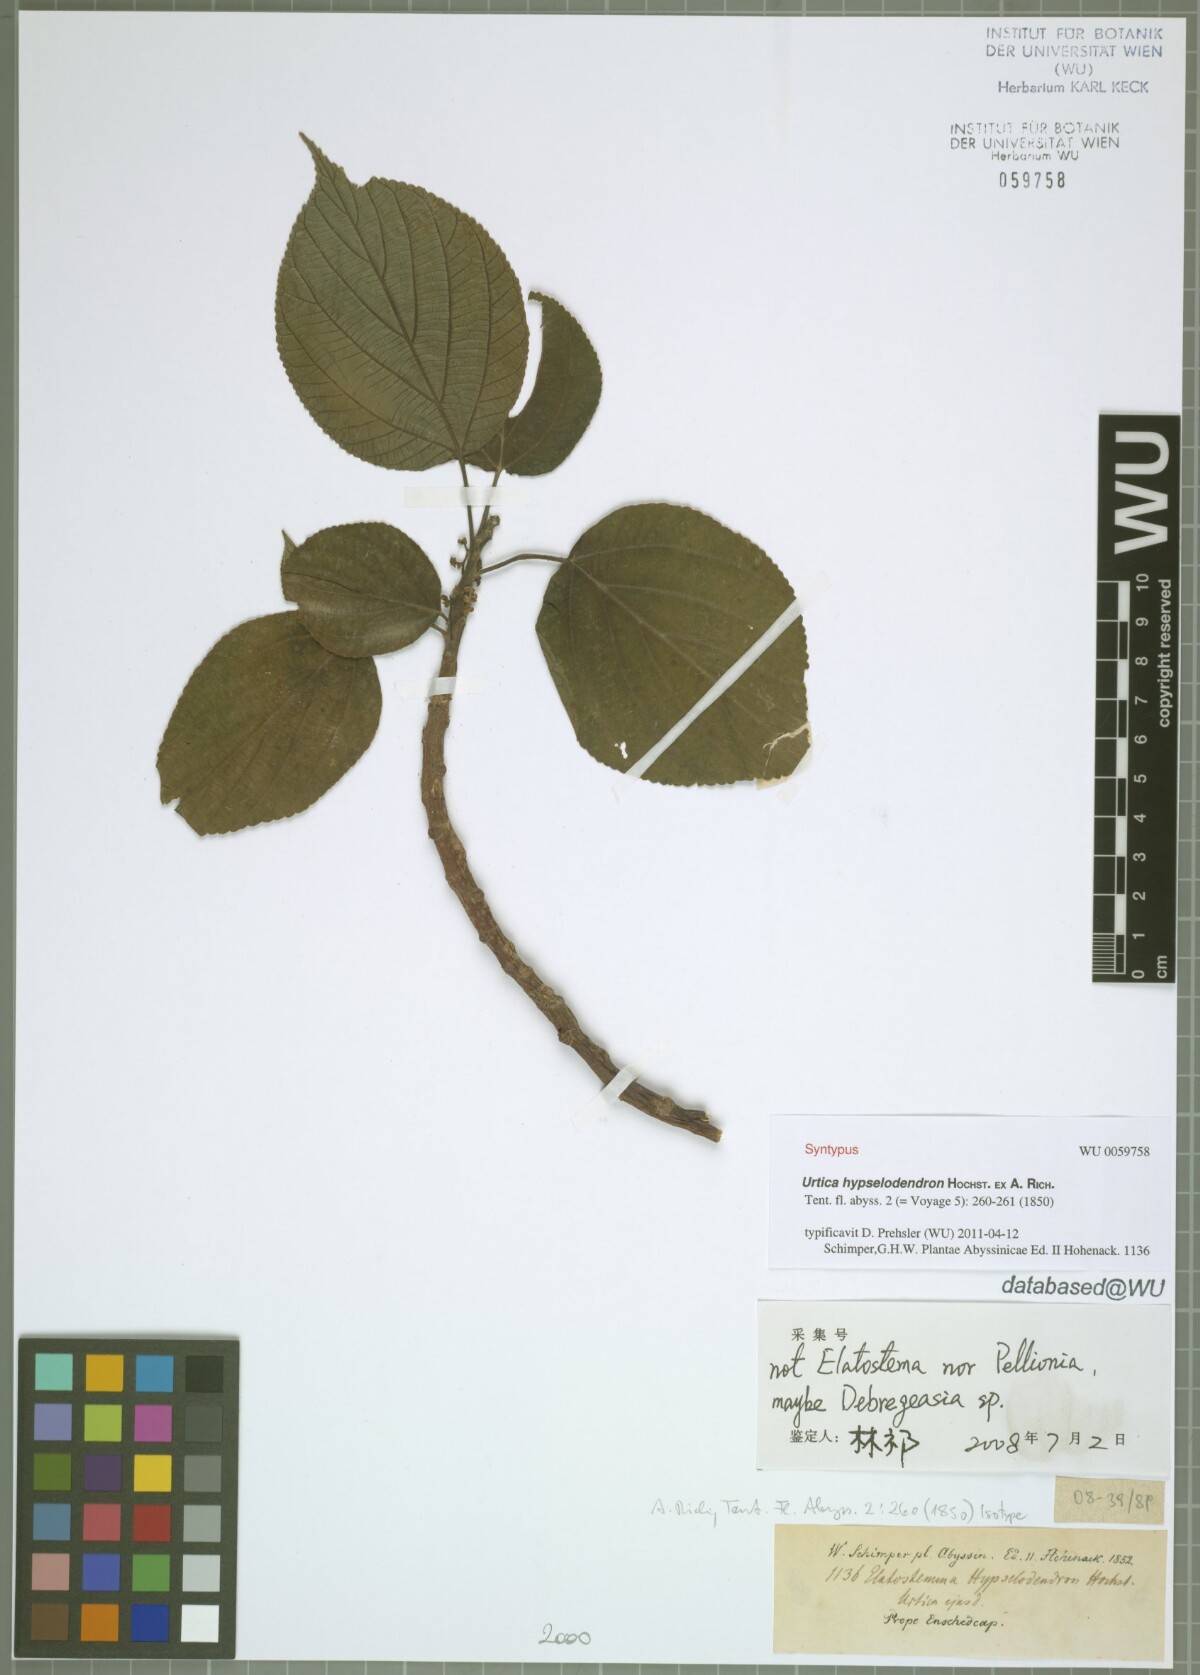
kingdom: Plantae
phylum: Tracheophyta
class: Magnoliopsida
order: Rosales
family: Urticaceae
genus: Scepocarpus
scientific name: Scepocarpus hypselodendron
